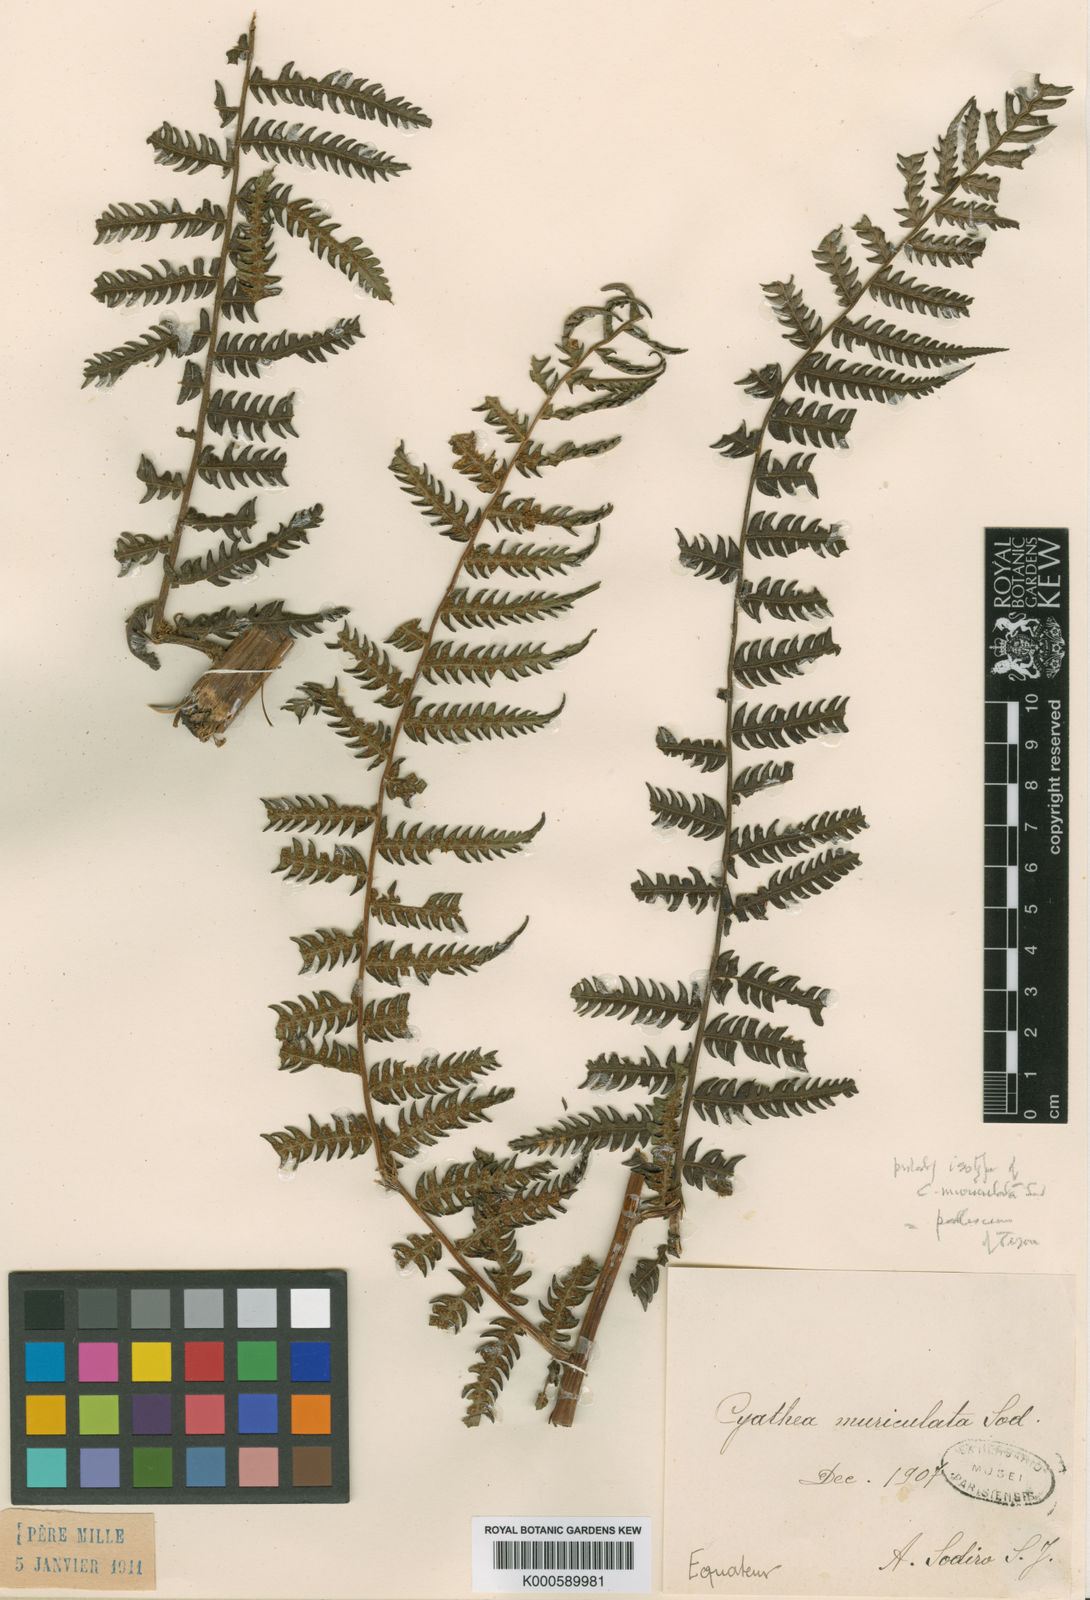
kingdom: Plantae
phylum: Tracheophyta
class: Polypodiopsida
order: Cyatheales
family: Cyatheaceae
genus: Cyathea
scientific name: Cyathea pallescens
